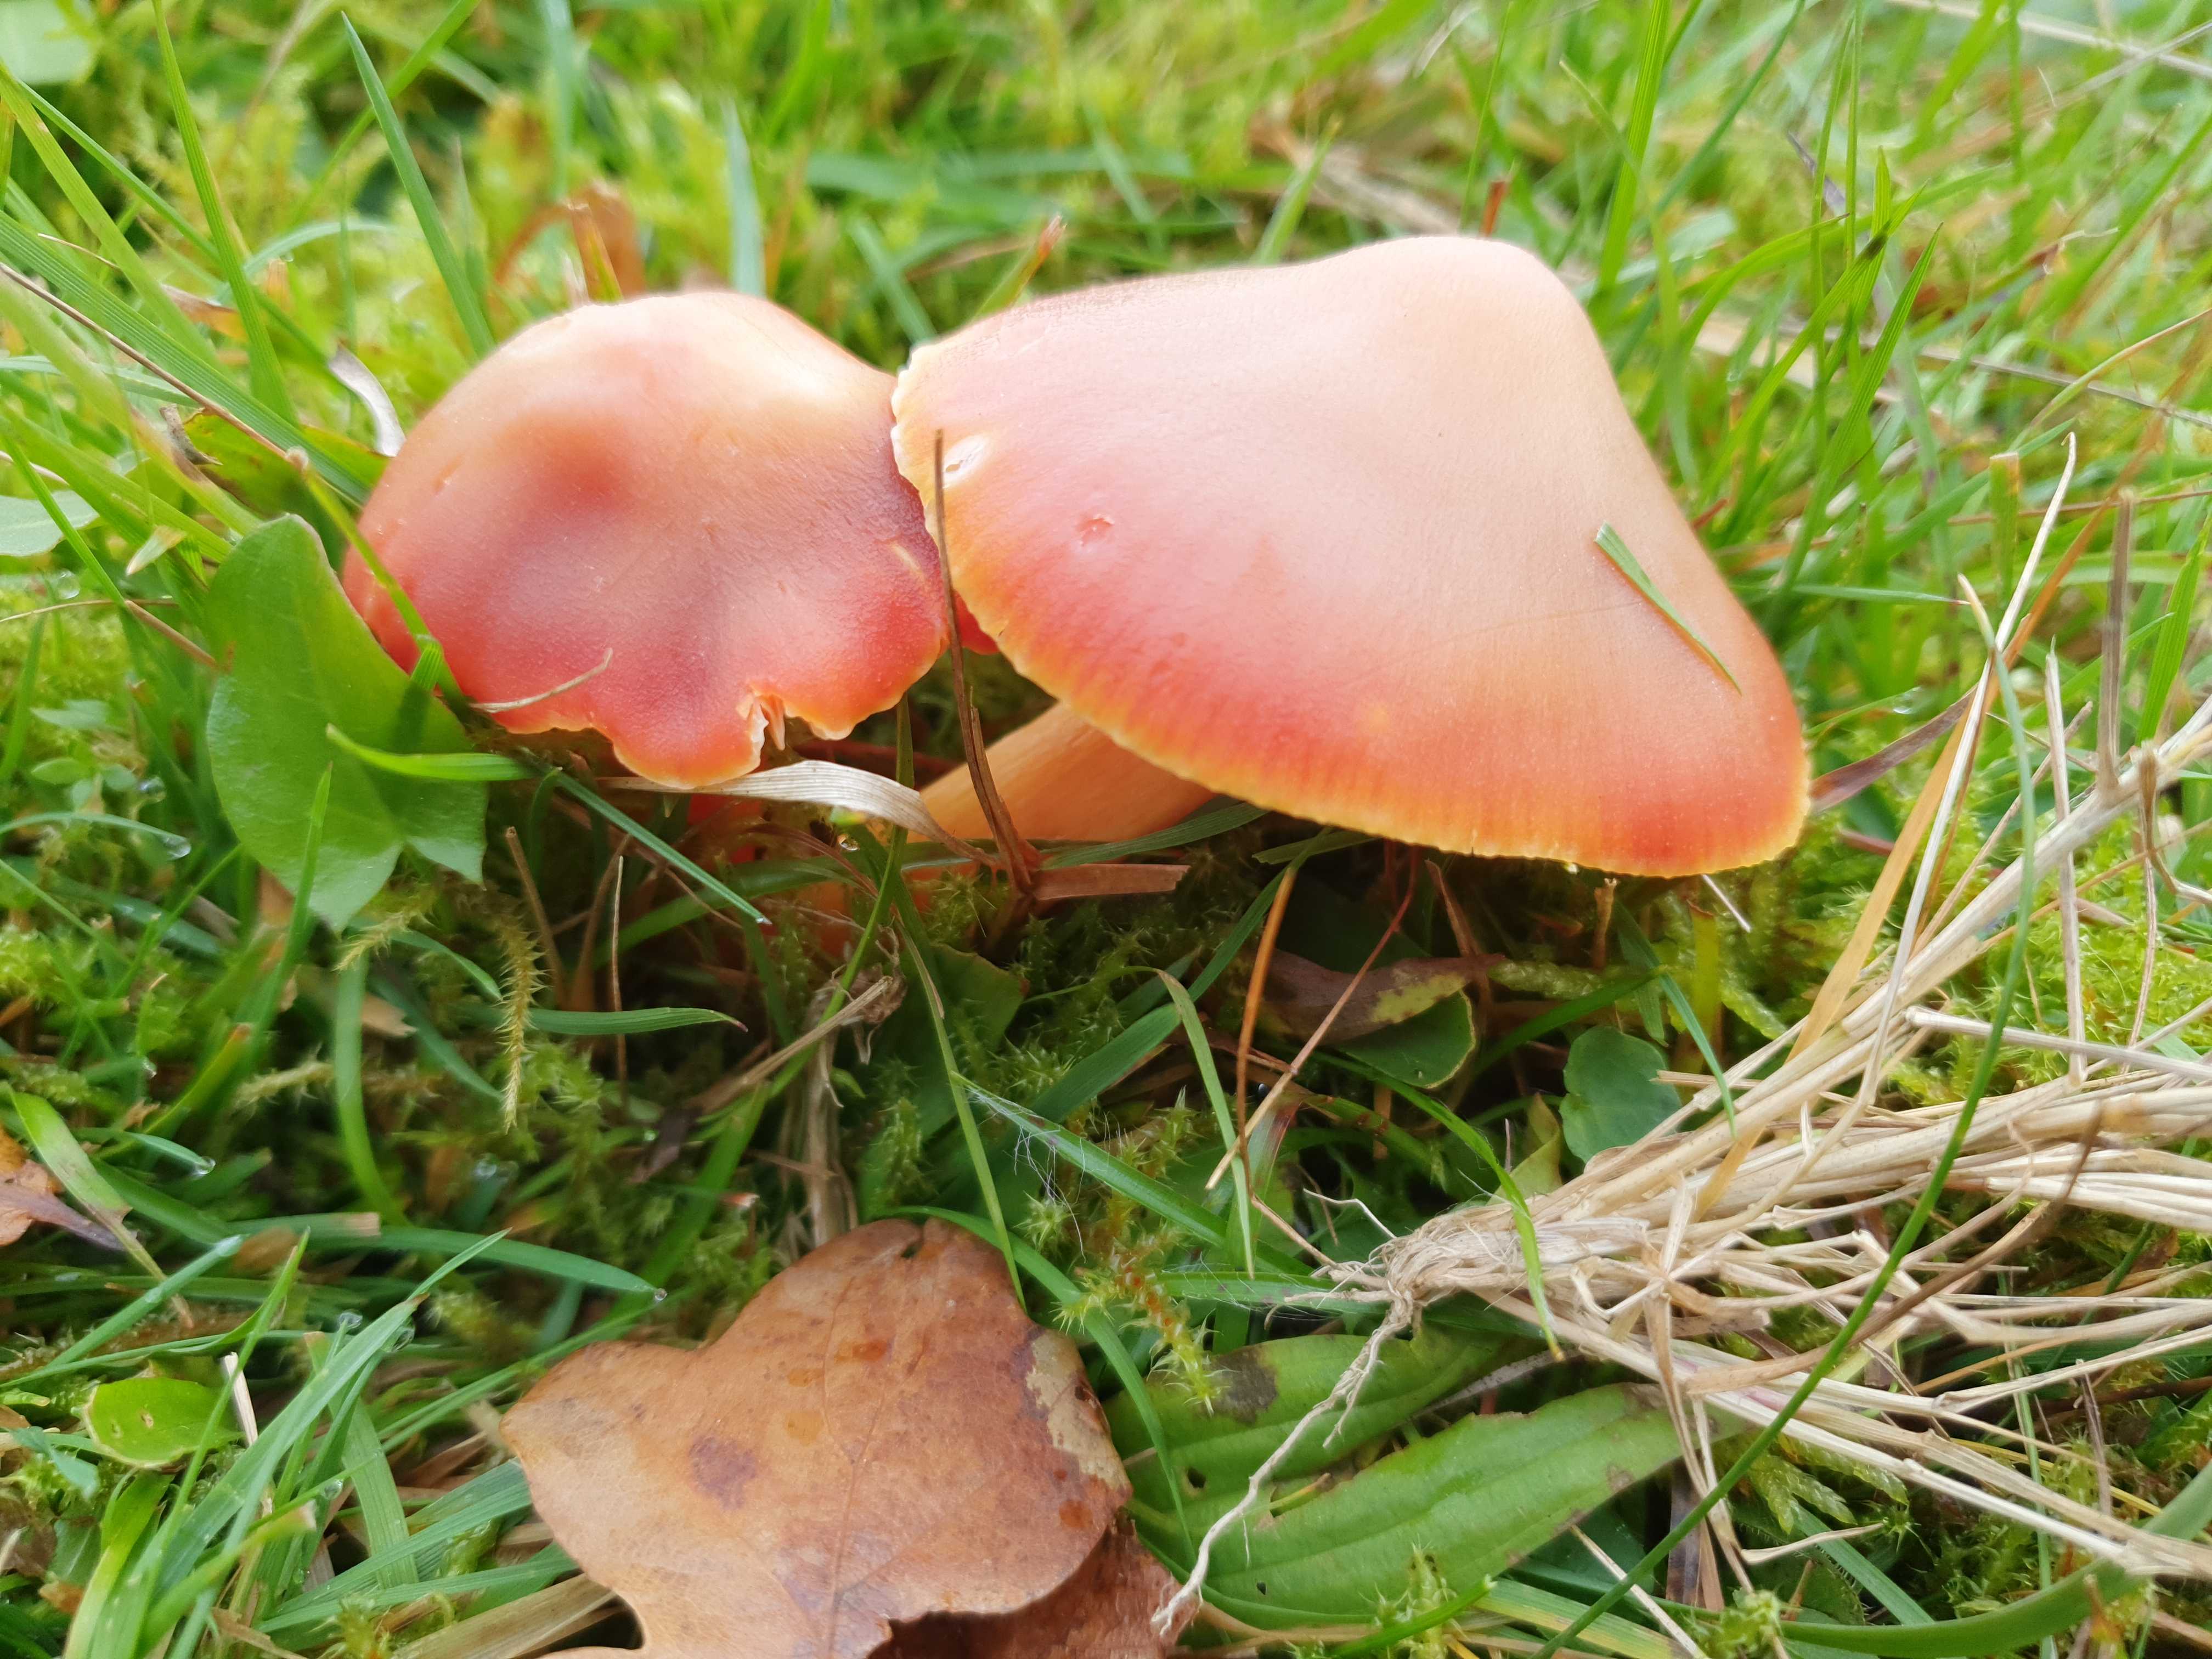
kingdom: Fungi
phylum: Basidiomycota
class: Agaricomycetes
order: Agaricales
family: Hygrophoraceae
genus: Hygrocybe
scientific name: Hygrocybe punicea
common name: skarlagen-vokshat
